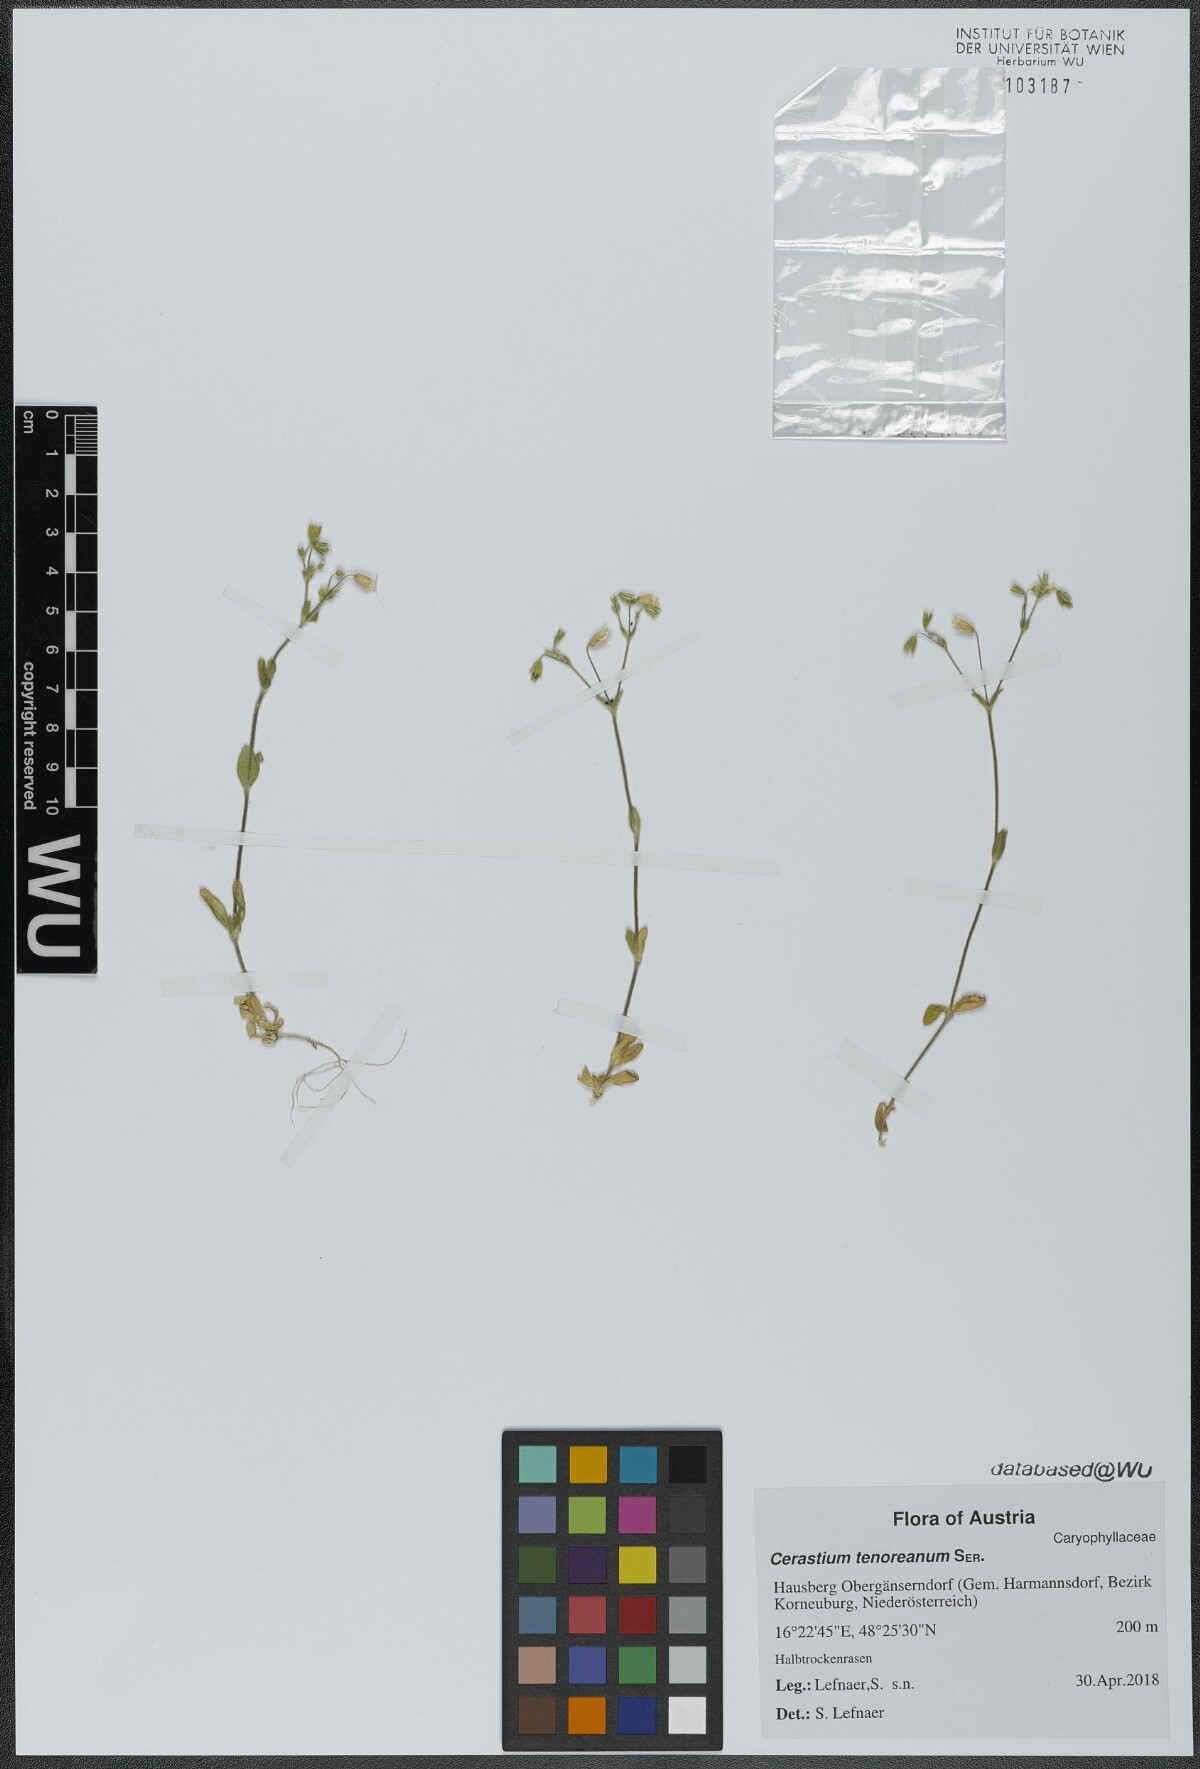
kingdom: Plantae
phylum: Tracheophyta
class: Magnoliopsida
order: Caryophyllales
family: Caryophyllaceae
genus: Cerastium
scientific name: Cerastium tenoreanum
